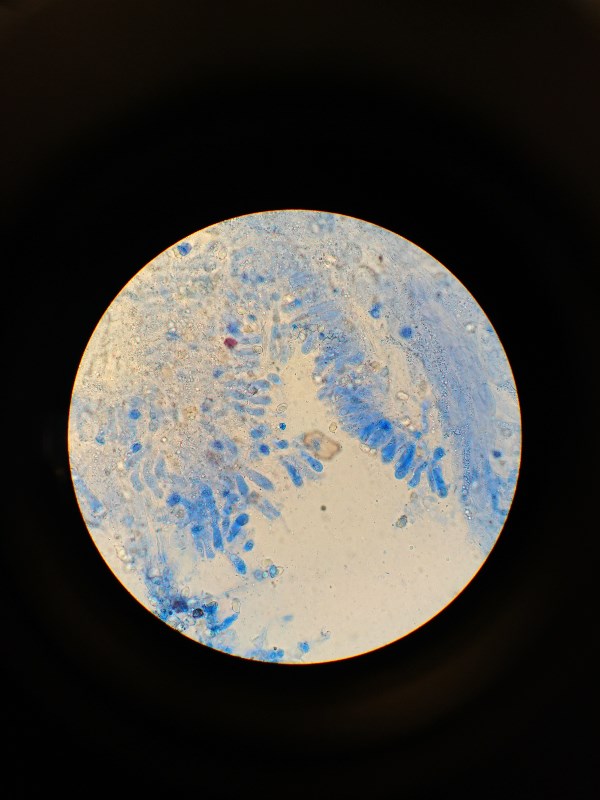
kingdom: Fungi
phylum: Basidiomycota
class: Agaricomycetes
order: Agaricales
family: Entolomataceae
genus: Entoloma
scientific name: Entoloma chytrophilum
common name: safir-rødblad
